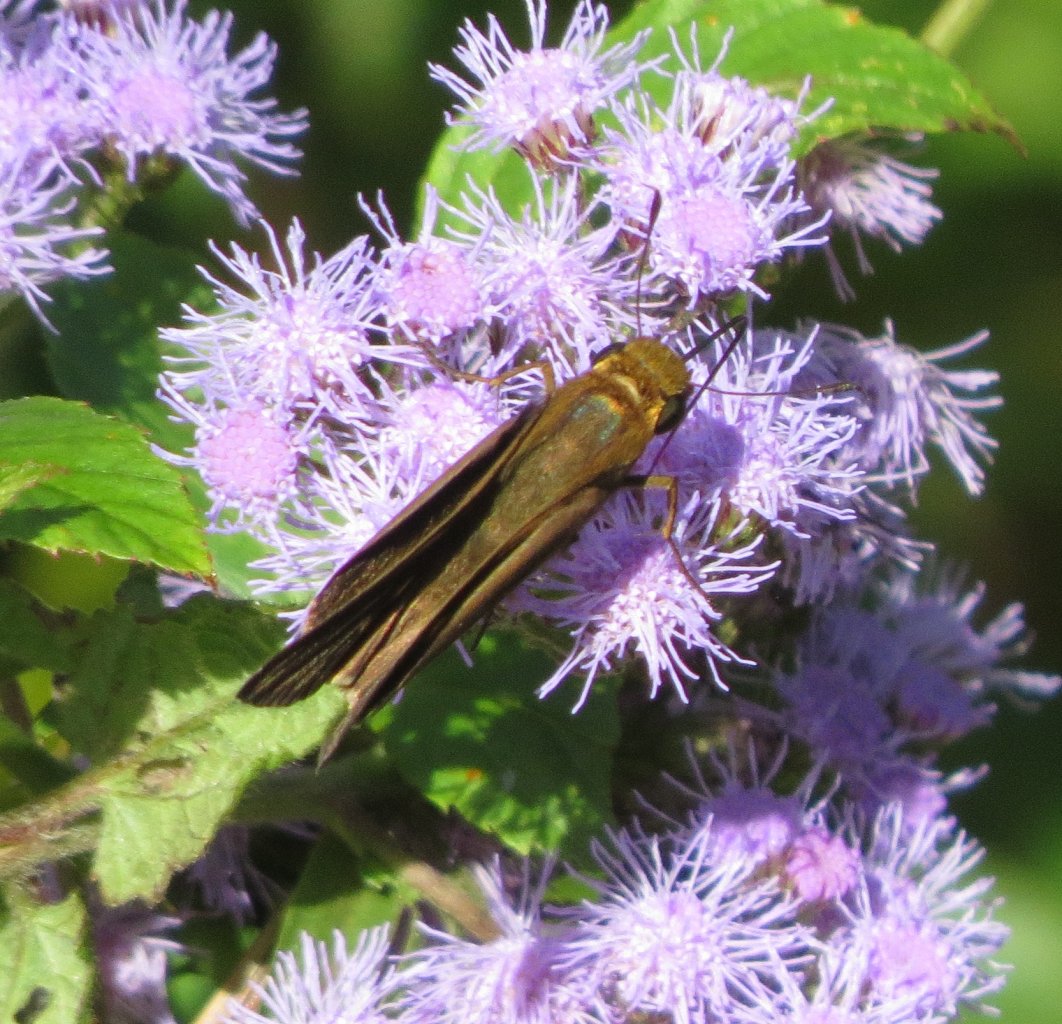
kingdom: Animalia
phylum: Arthropoda
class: Insecta
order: Lepidoptera
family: Hesperiidae
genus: Panoquina
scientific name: Panoquina ocola
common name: Ocola Skipper
